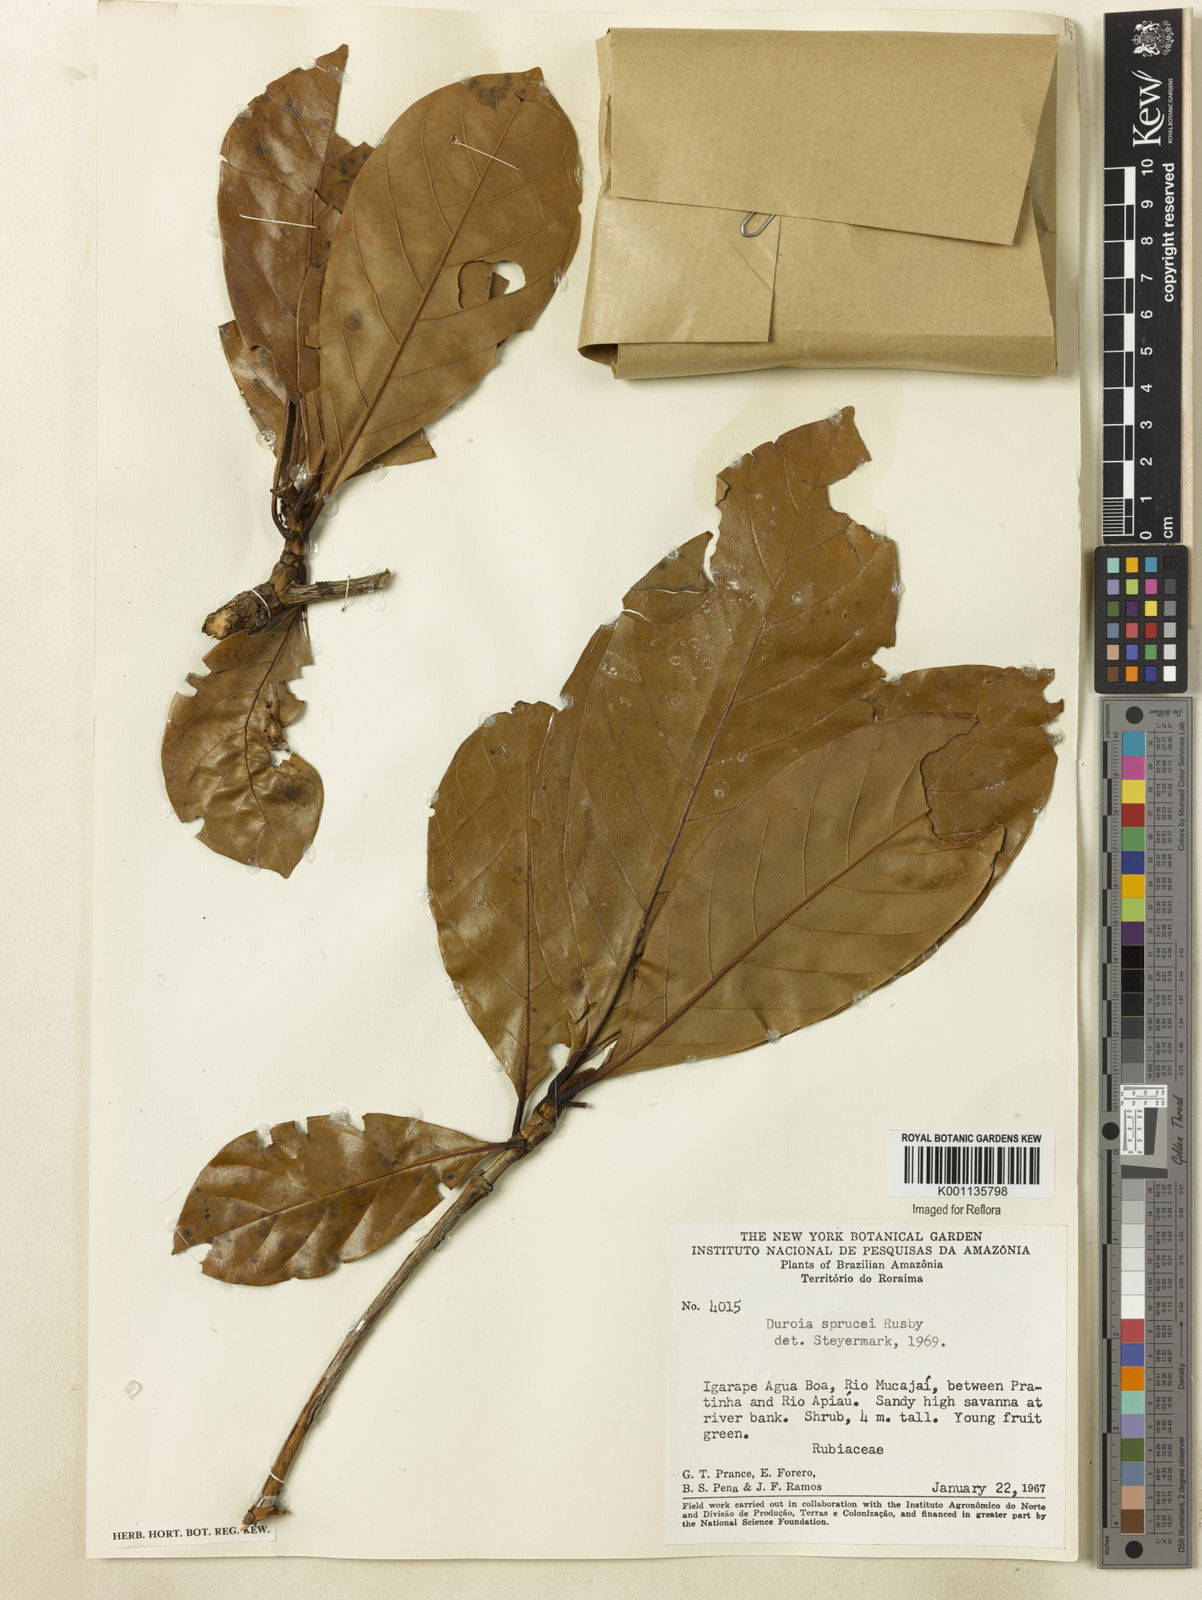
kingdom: Plantae
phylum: Tracheophyta
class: Magnoliopsida
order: Gentianales
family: Rubiaceae
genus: Duroia
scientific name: Duroia micrantha
